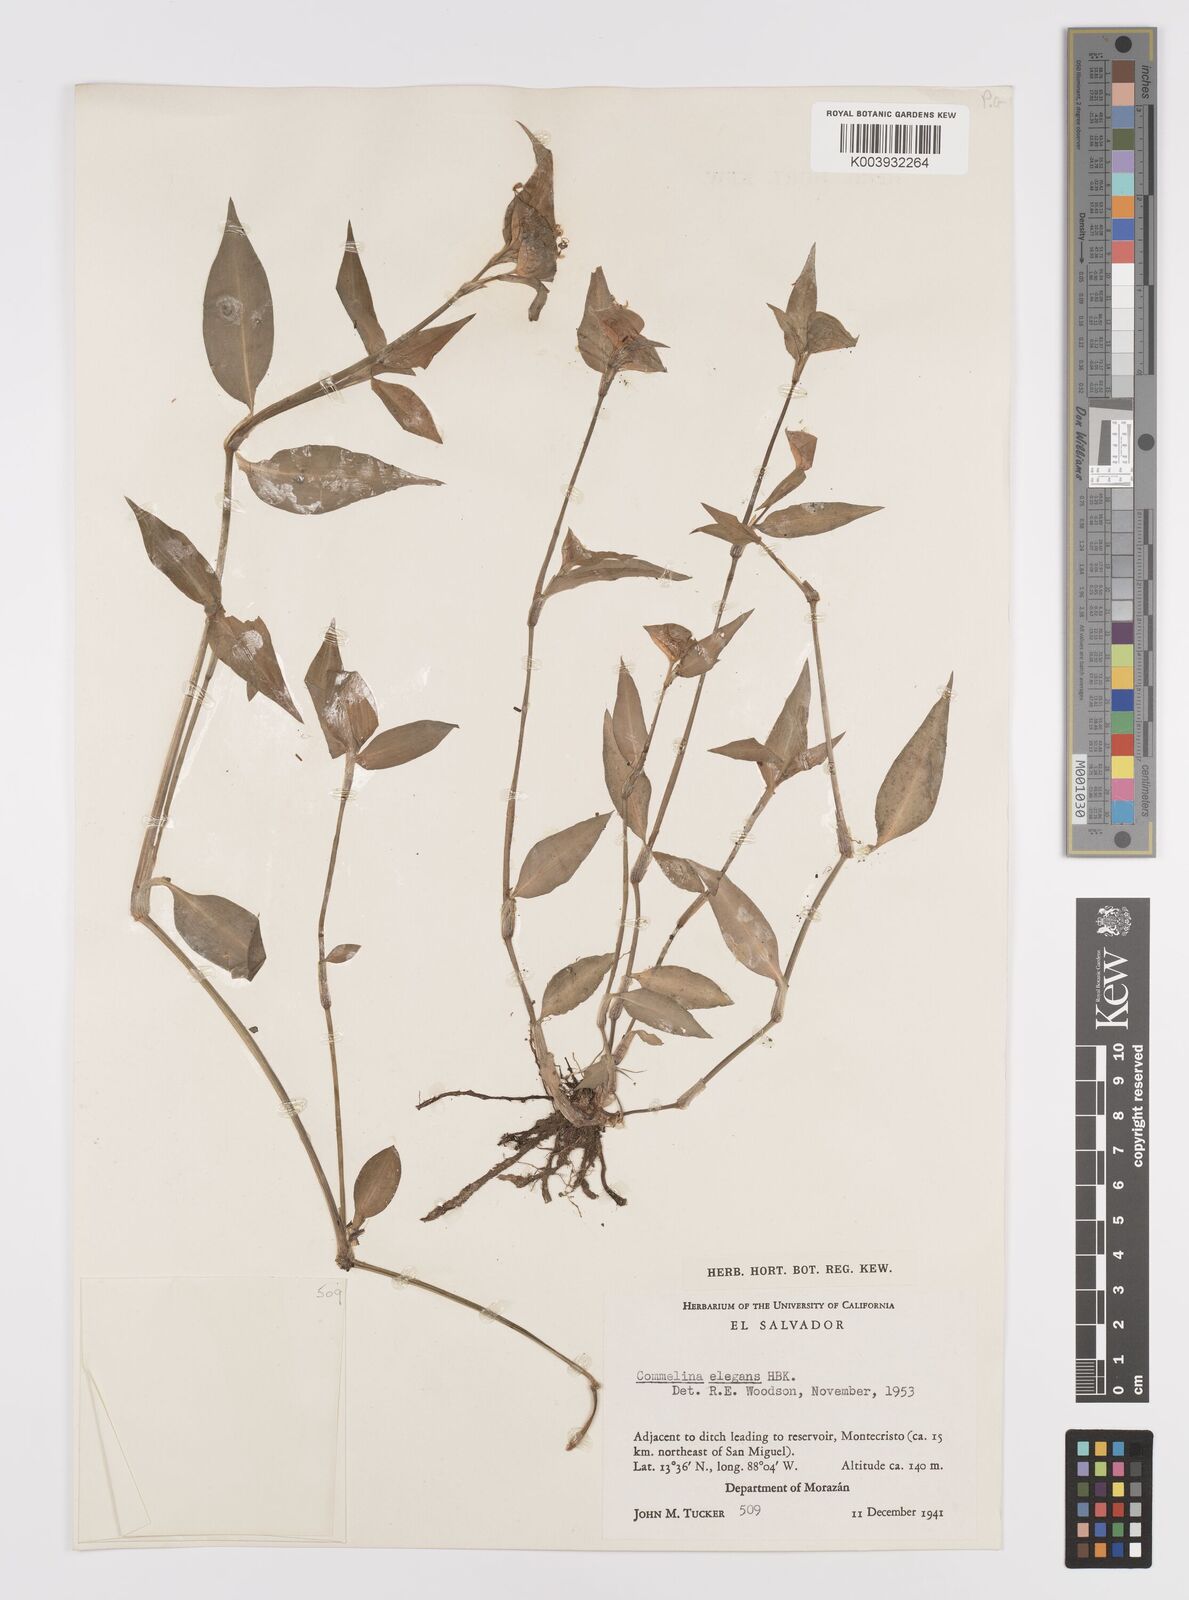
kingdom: Plantae
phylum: Tracheophyta
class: Liliopsida
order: Commelinales
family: Commelinaceae
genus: Commelina
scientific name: Commelina erecta
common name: Blousel blommetjie
